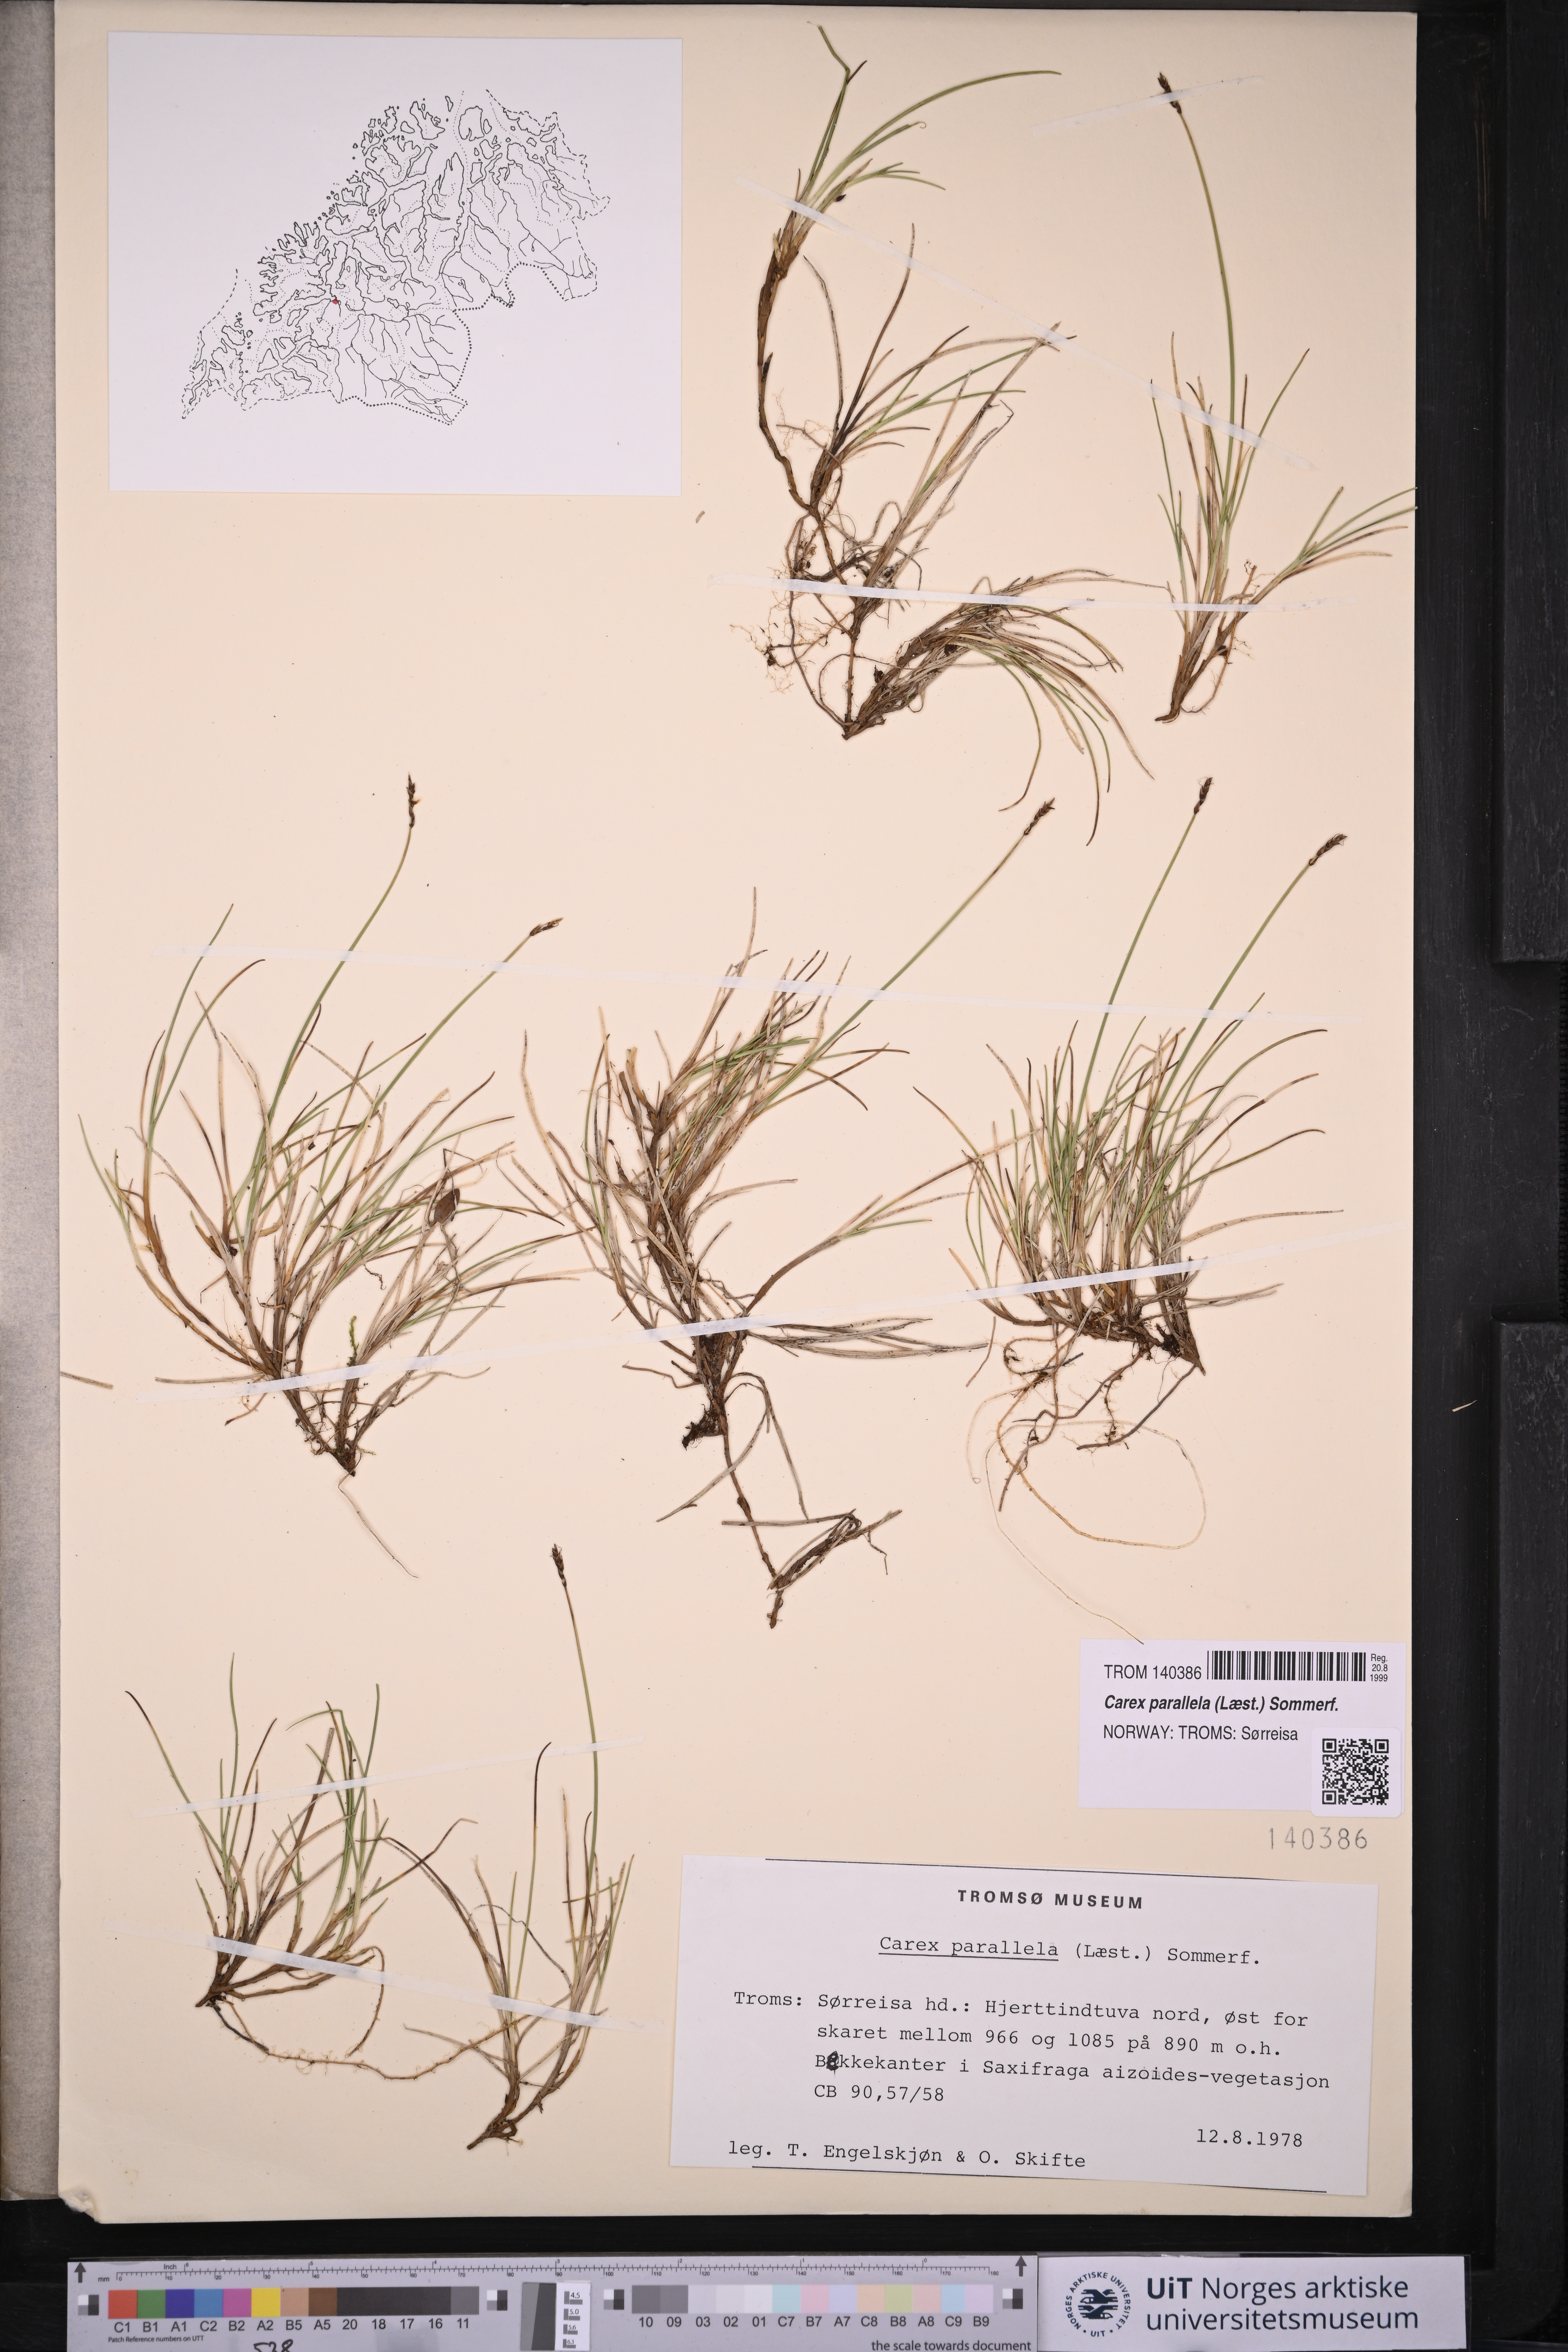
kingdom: Plantae
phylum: Tracheophyta
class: Liliopsida
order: Poales
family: Cyperaceae
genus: Carex
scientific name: Carex parallela
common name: Parallel sedge
